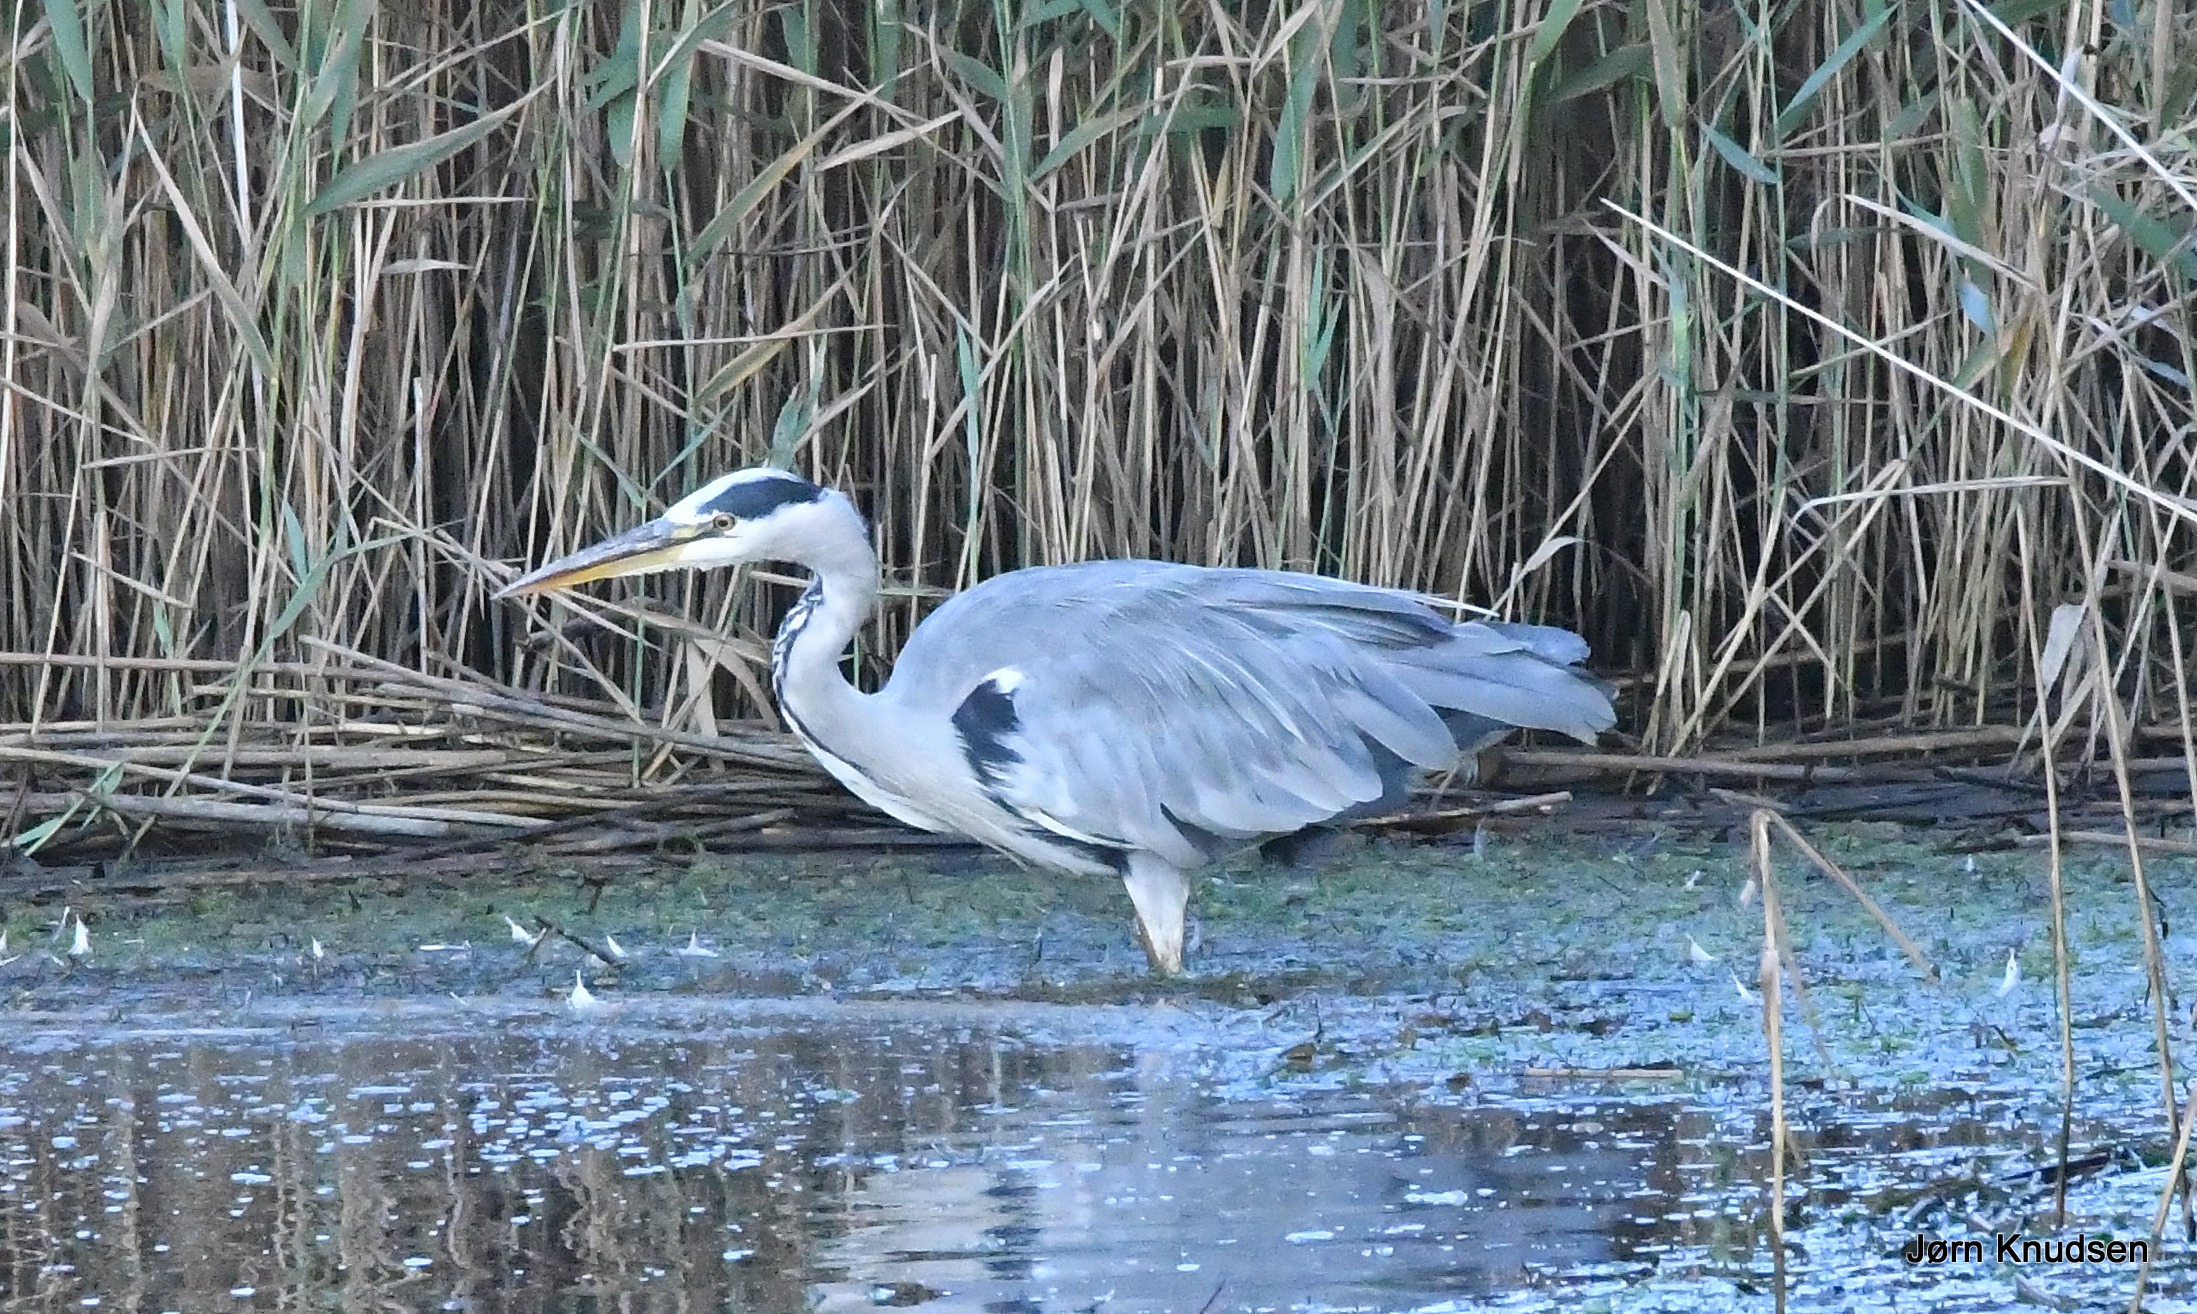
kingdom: Animalia
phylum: Chordata
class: Aves
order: Pelecaniformes
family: Ardeidae
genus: Ardea
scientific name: Ardea cinerea
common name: Fiskehejre
